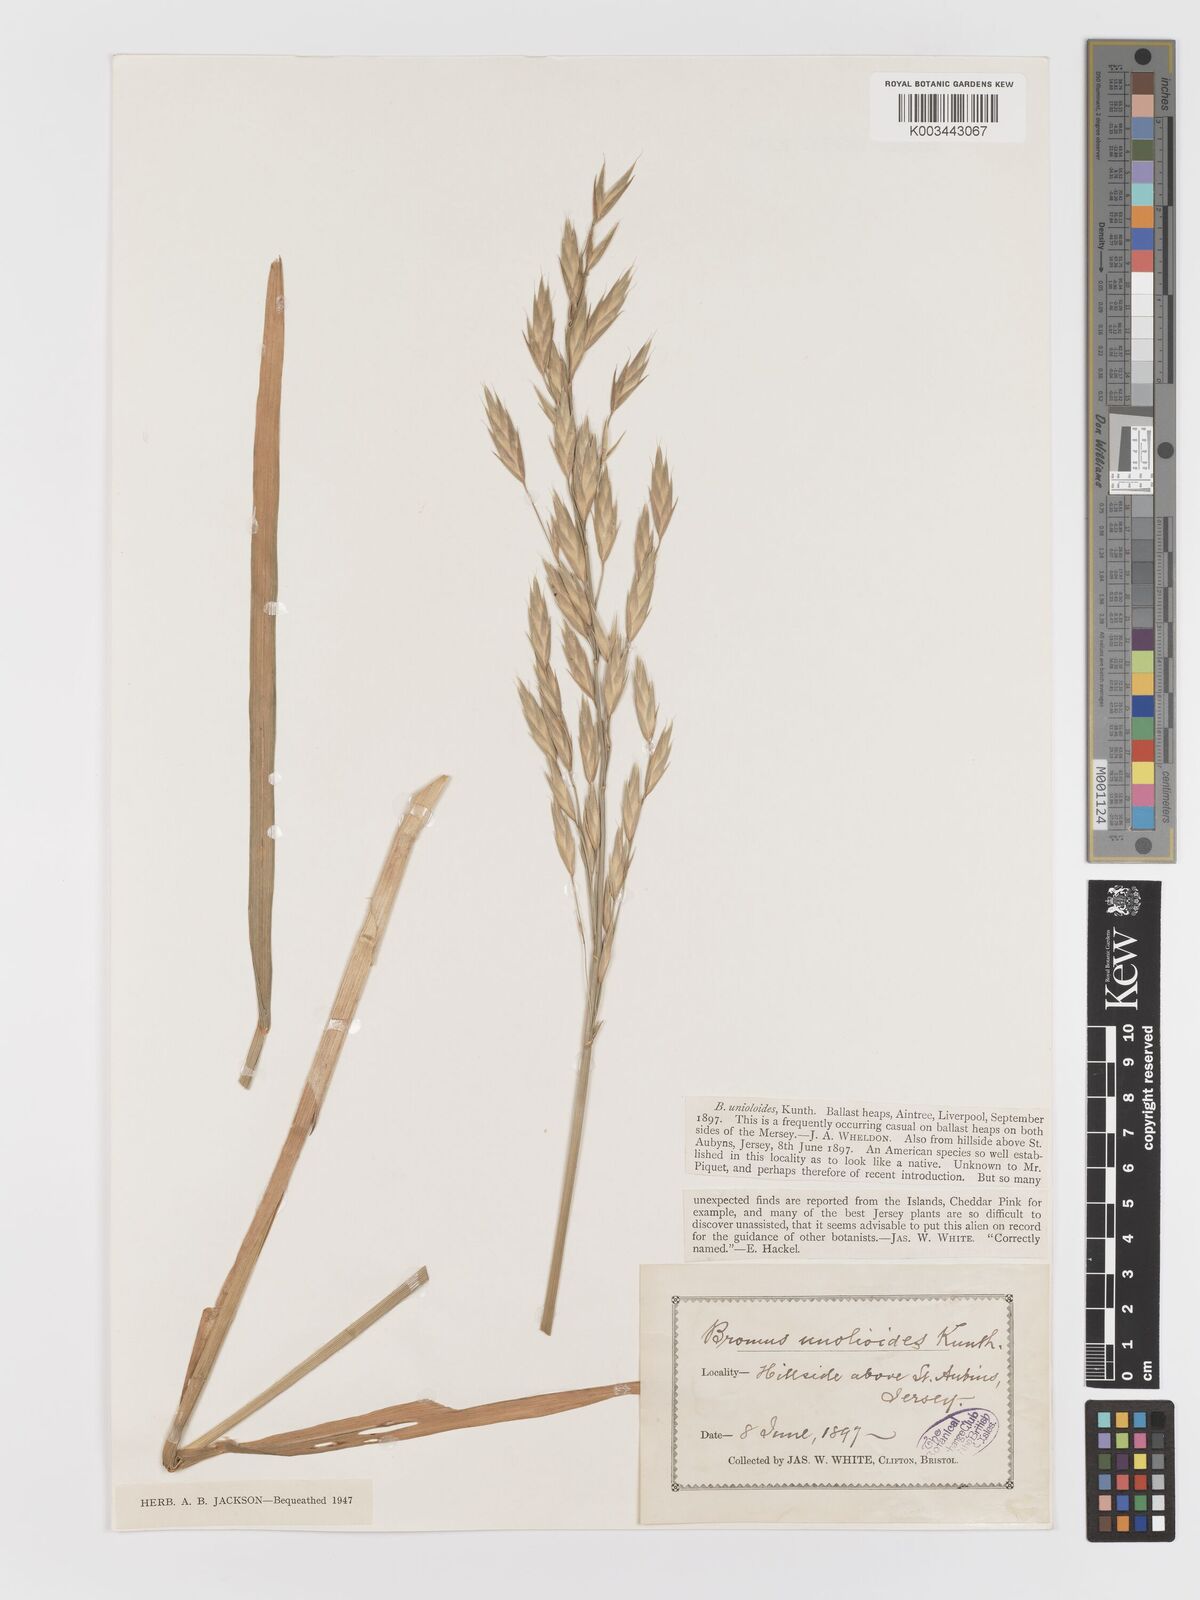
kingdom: Plantae
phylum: Tracheophyta
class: Liliopsida
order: Poales
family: Poaceae
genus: Bromus
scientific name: Bromus catharticus
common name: Rescuegrass
